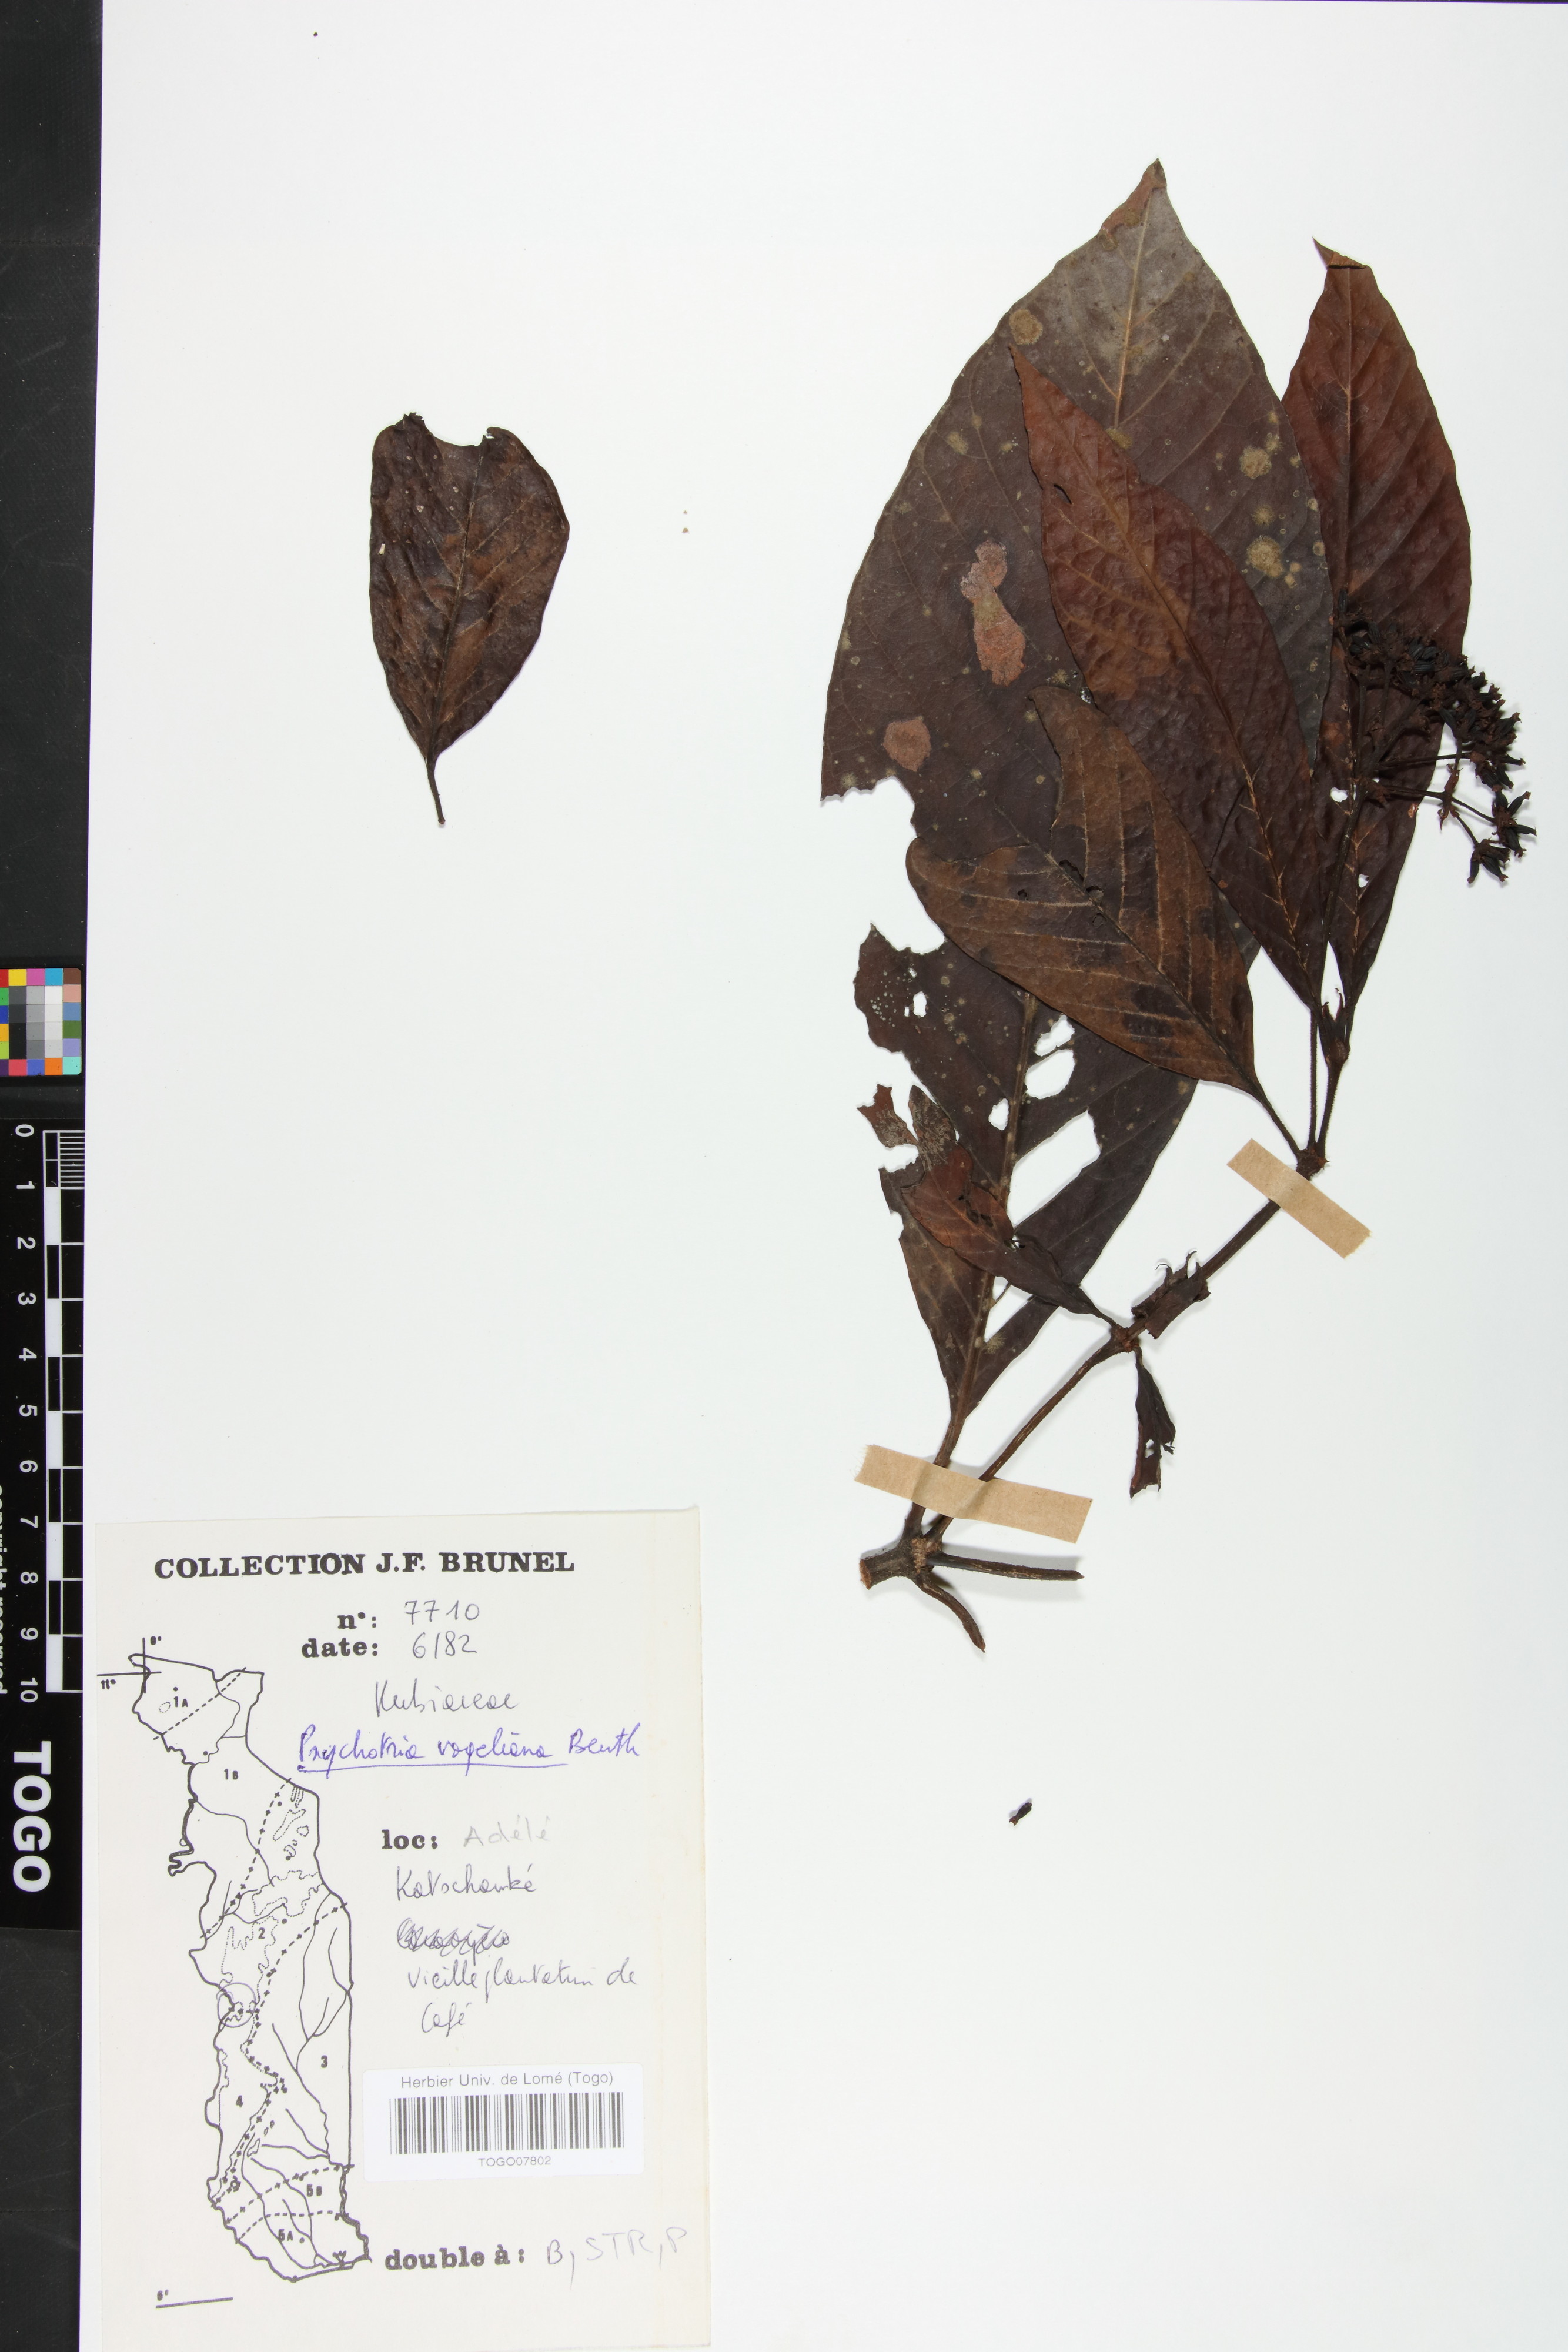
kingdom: Plantae
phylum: Tracheophyta
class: Magnoliopsida
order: Gentianales
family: Rubiaceae
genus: Psychotria
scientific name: Psychotria vogeliana
